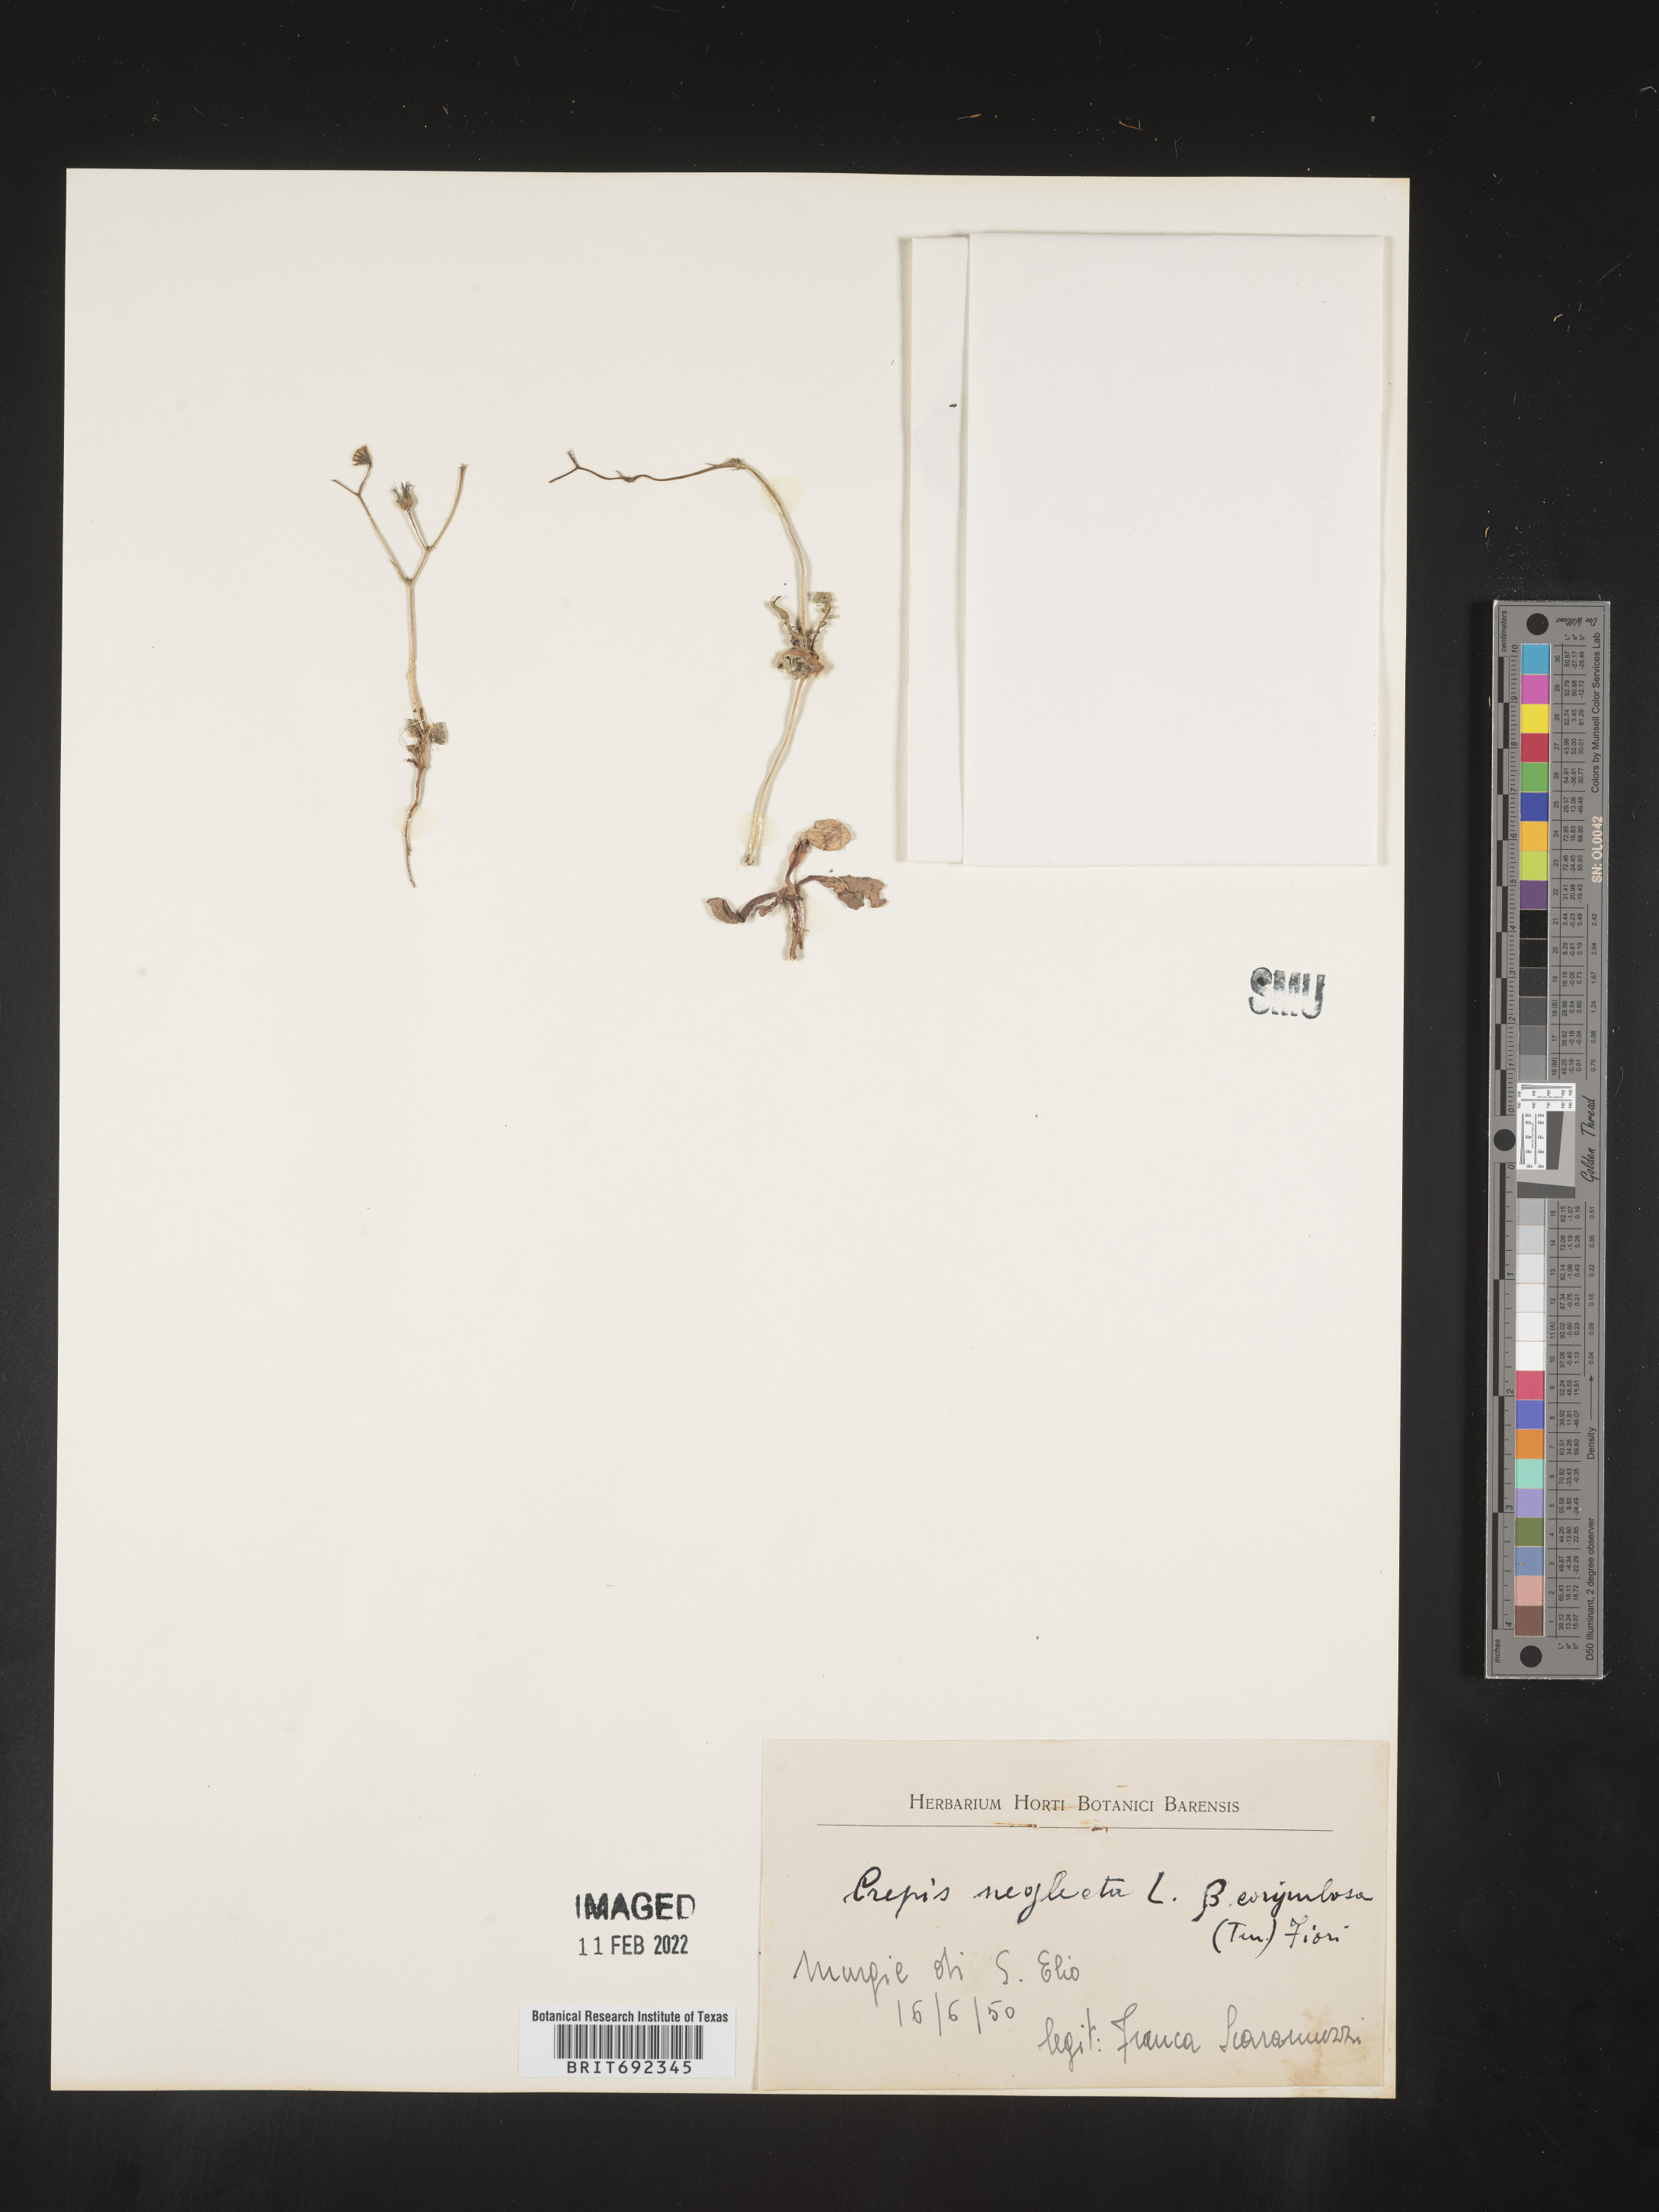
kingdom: Plantae
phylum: Tracheophyta
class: Magnoliopsida
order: Asterales
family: Asteraceae
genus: Crepis
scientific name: Crepis
